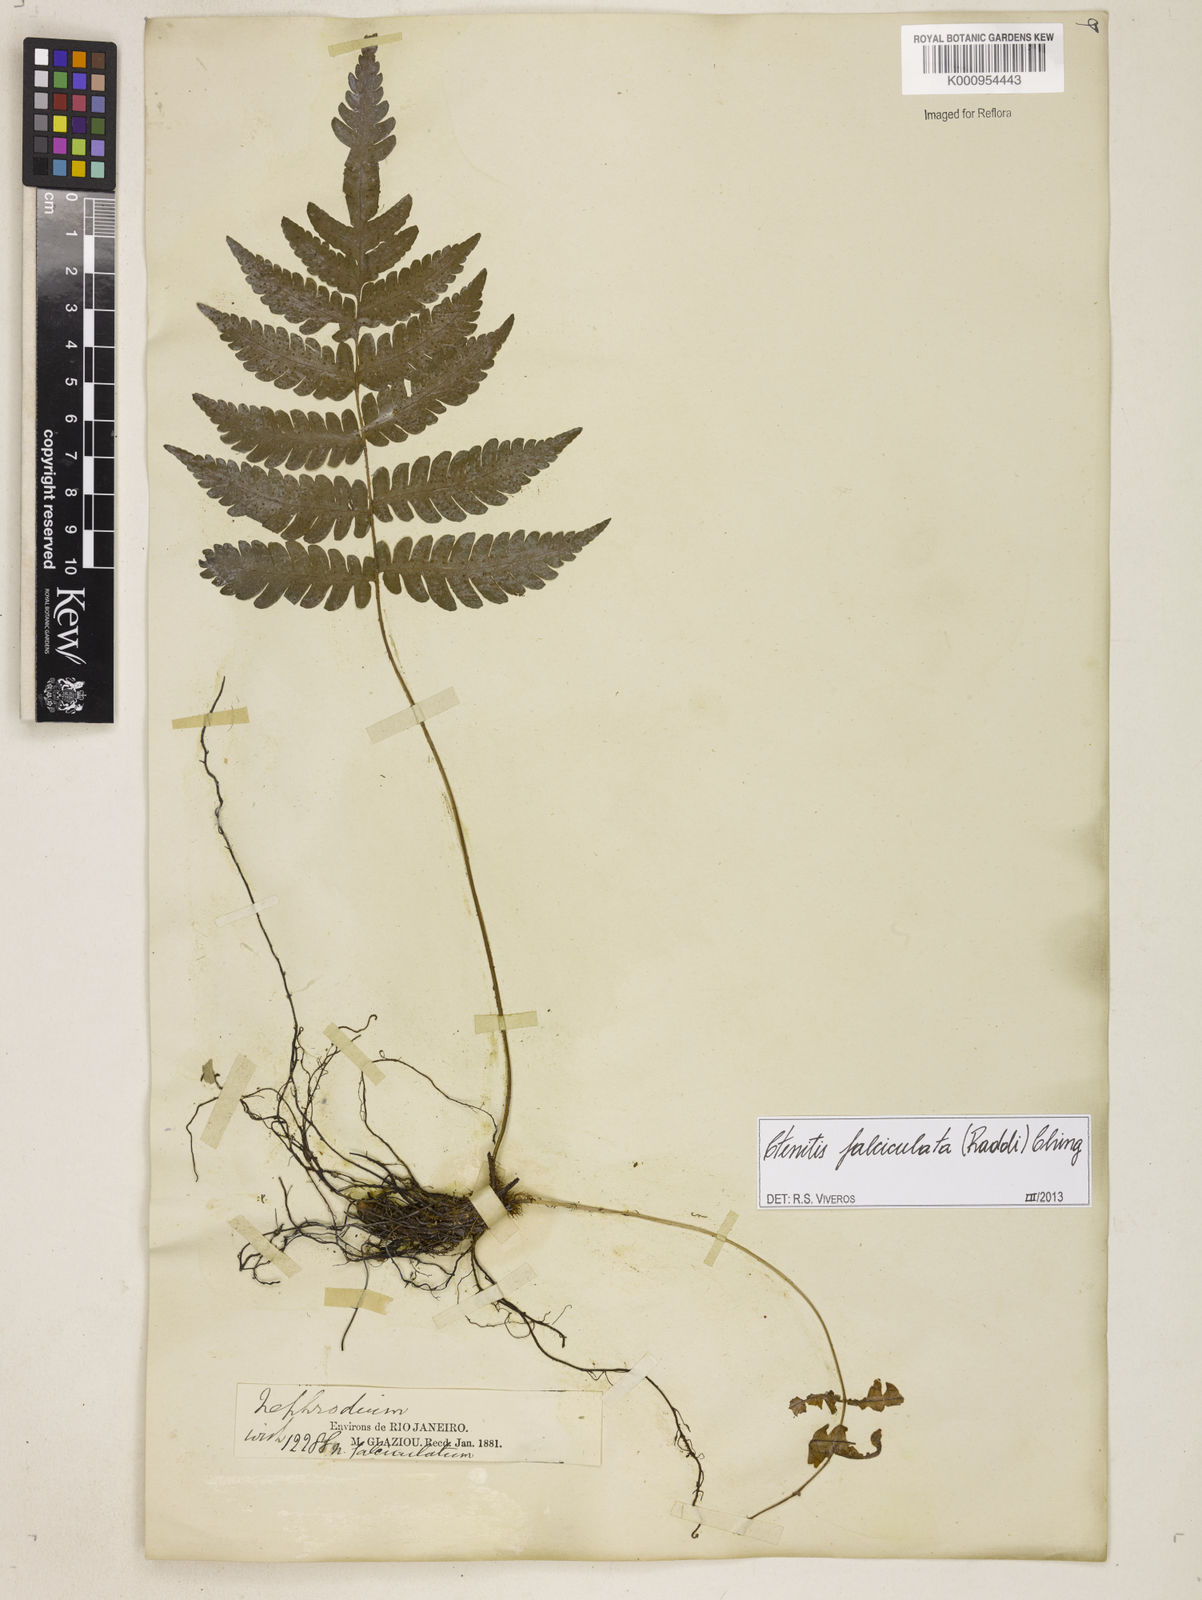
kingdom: Plantae
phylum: Tracheophyta
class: Polypodiopsida
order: Polypodiales
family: Dryopteridaceae
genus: Ctenitis
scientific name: Ctenitis falciculata
